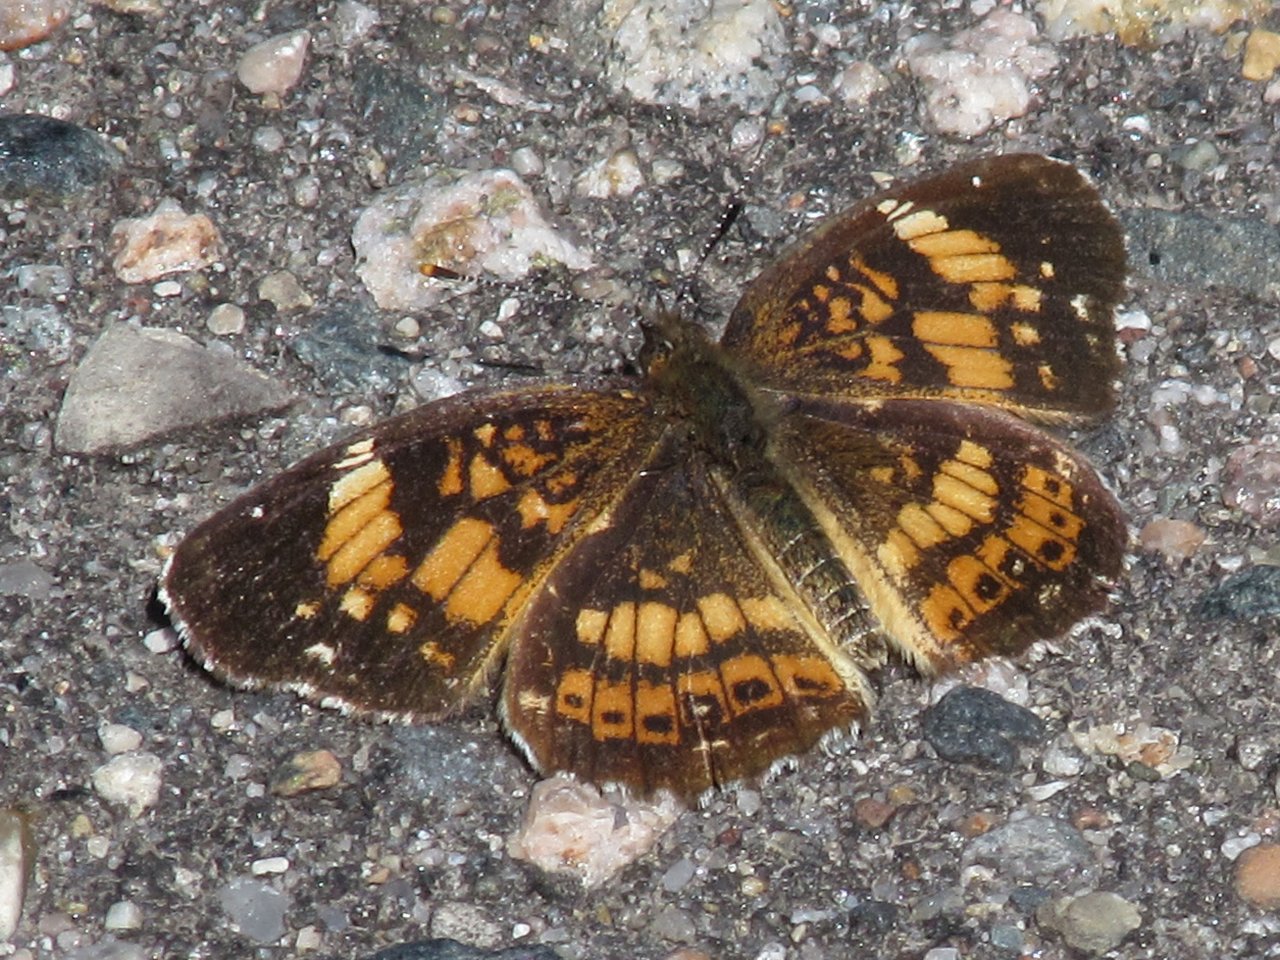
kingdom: Animalia
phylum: Arthropoda
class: Insecta
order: Lepidoptera
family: Nymphalidae
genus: Chlosyne
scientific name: Chlosyne nycteis
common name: Silvery Checkerspot
